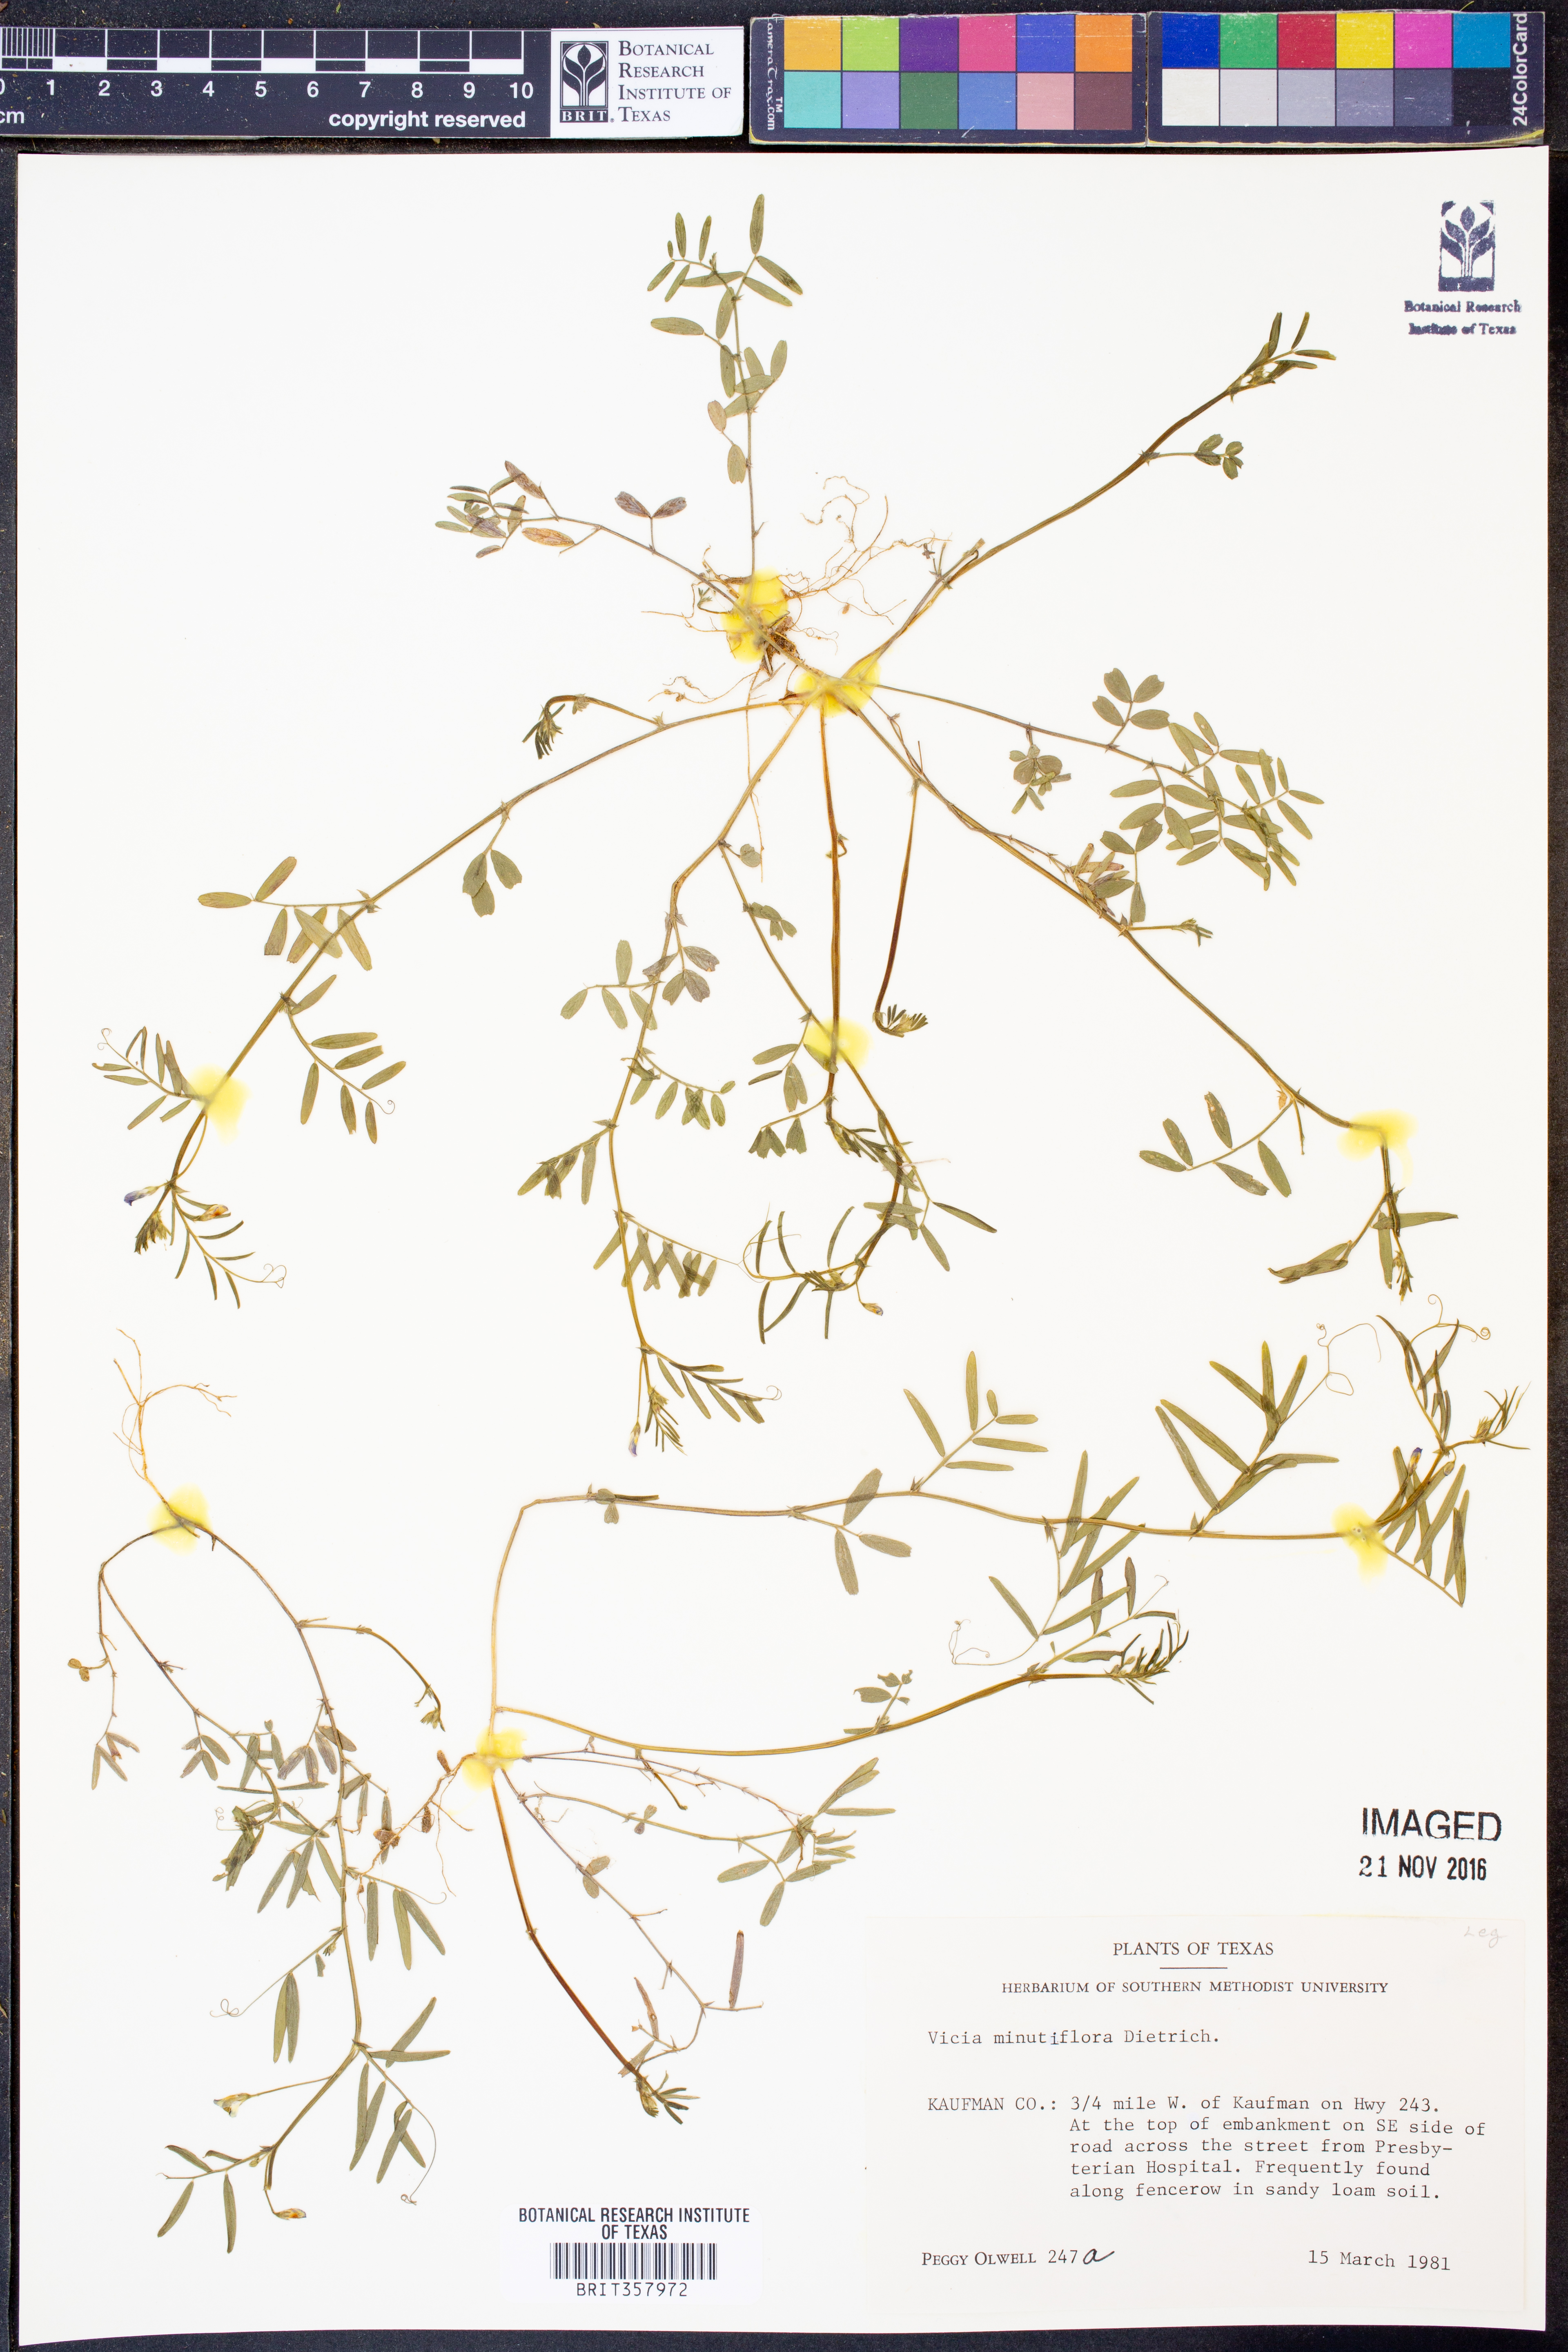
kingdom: Plantae
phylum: Tracheophyta
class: Magnoliopsida
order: Fabales
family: Fabaceae
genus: Vicia
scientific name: Vicia minutiflora
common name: Pygmy-flower vetch
